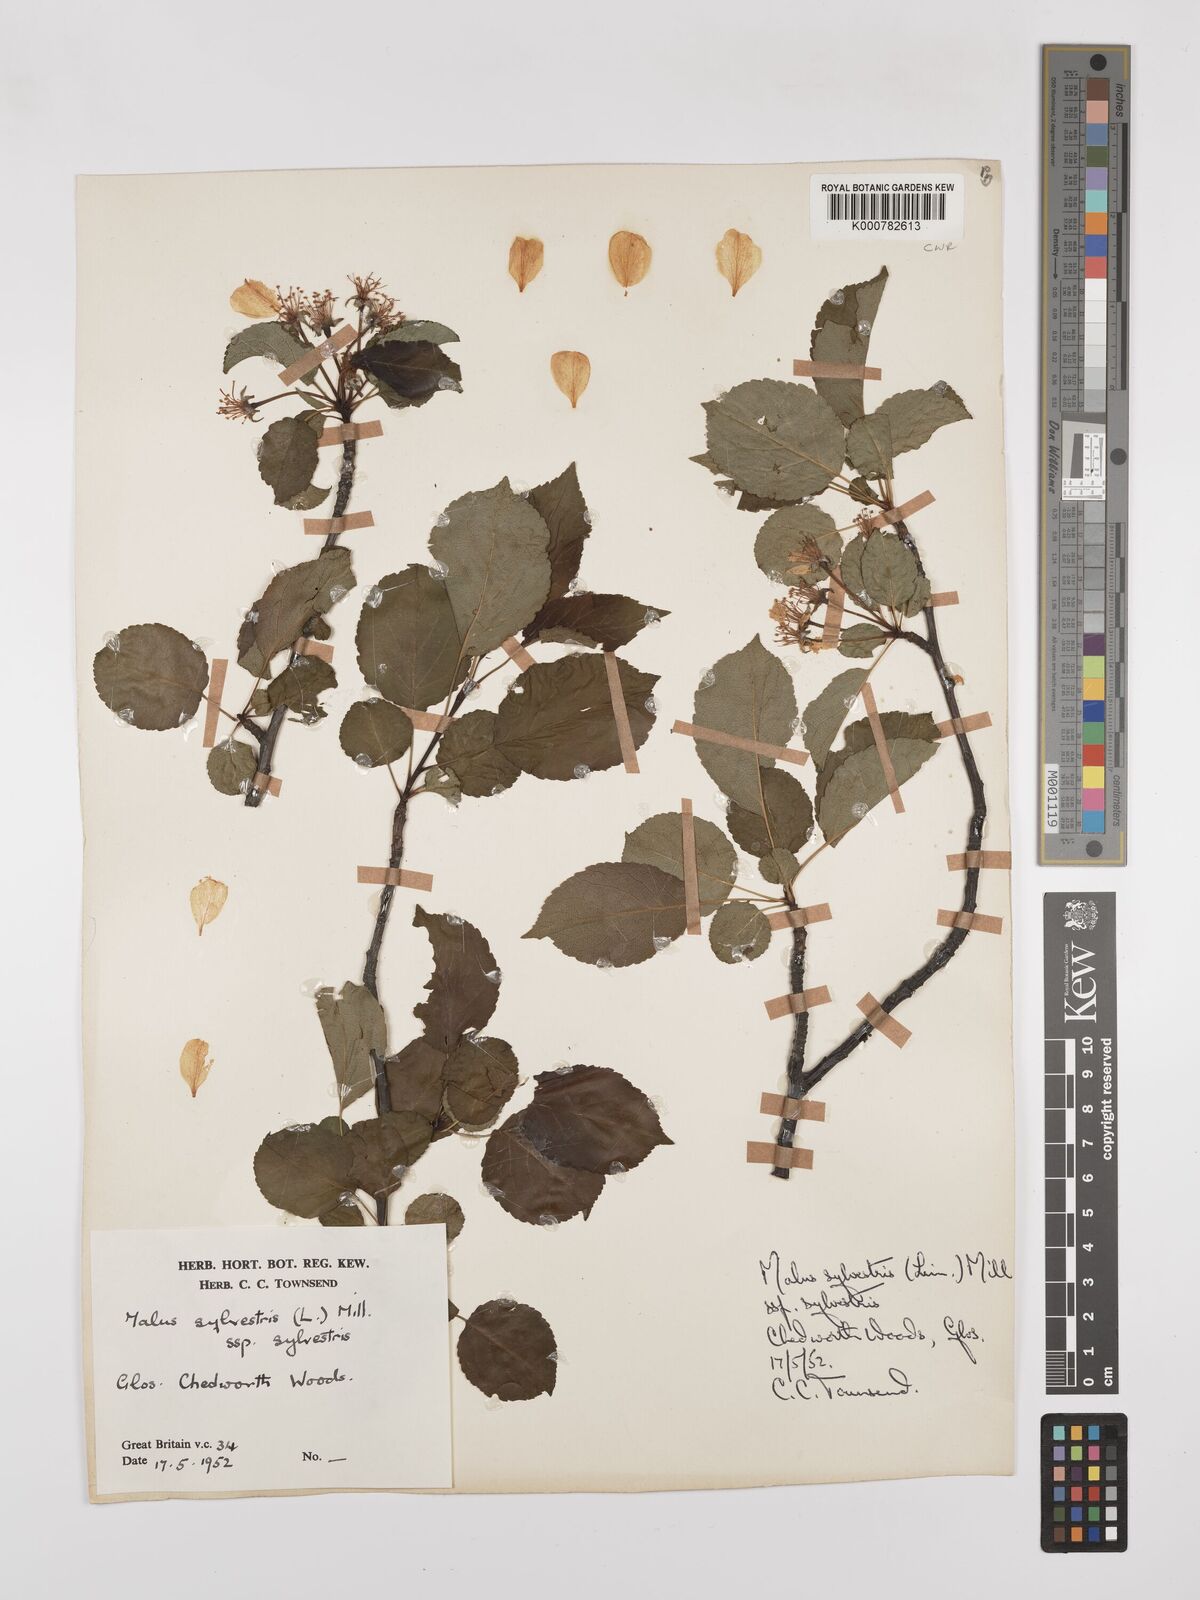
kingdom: Plantae
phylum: Tracheophyta
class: Magnoliopsida
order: Rosales
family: Rosaceae
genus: Malus
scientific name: Malus sylvestris
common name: Crab apple
